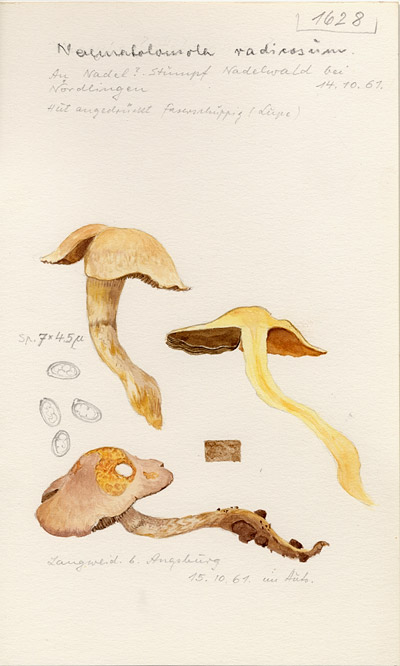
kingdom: Fungi
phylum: Basidiomycota
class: Agaricomycetes
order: Agaricales
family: Strophariaceae
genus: Hypholoma
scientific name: Hypholoma radicosum
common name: Rooting brownie
